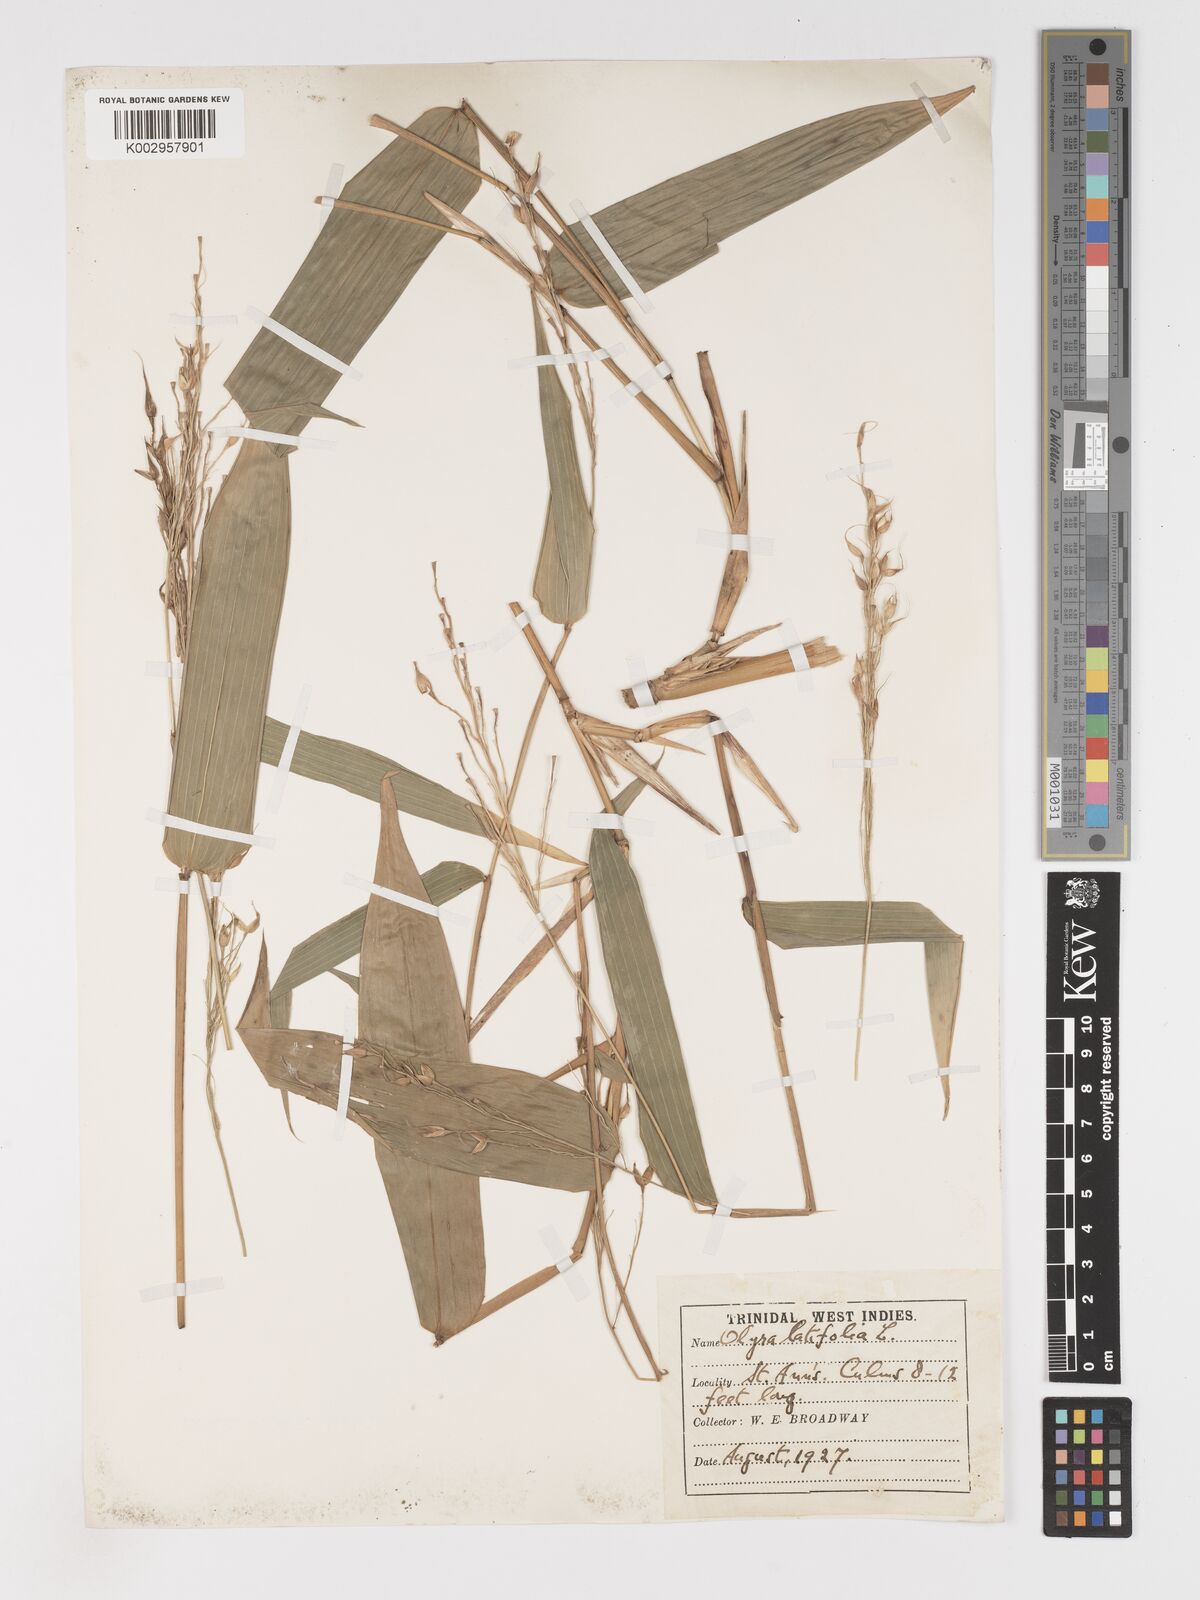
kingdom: Plantae
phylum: Tracheophyta
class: Liliopsida
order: Poales
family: Poaceae
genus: Olyra
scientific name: Olyra latifolia
